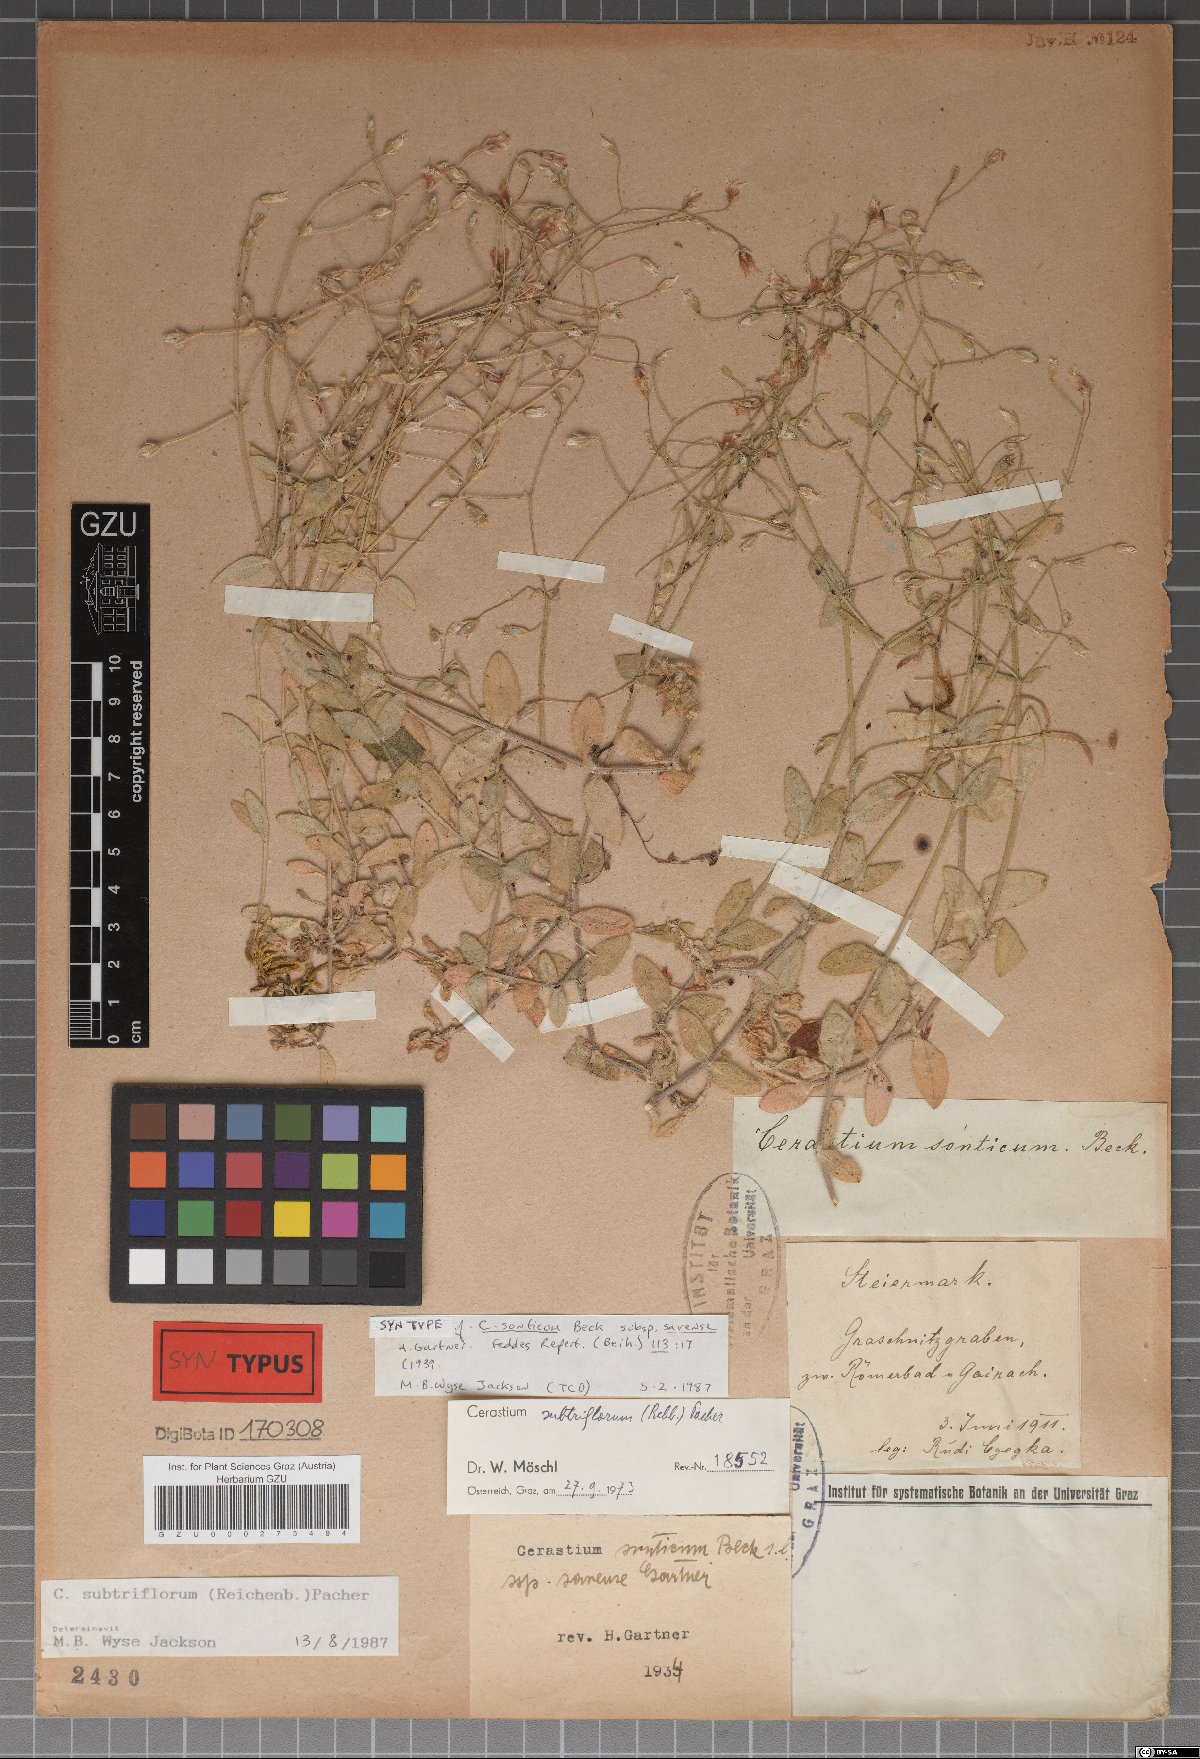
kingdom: Plantae
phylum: Tracheophyta
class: Magnoliopsida
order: Caryophyllales
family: Caryophyllaceae
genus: Cerastium
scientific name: Cerastium subtriflorum
